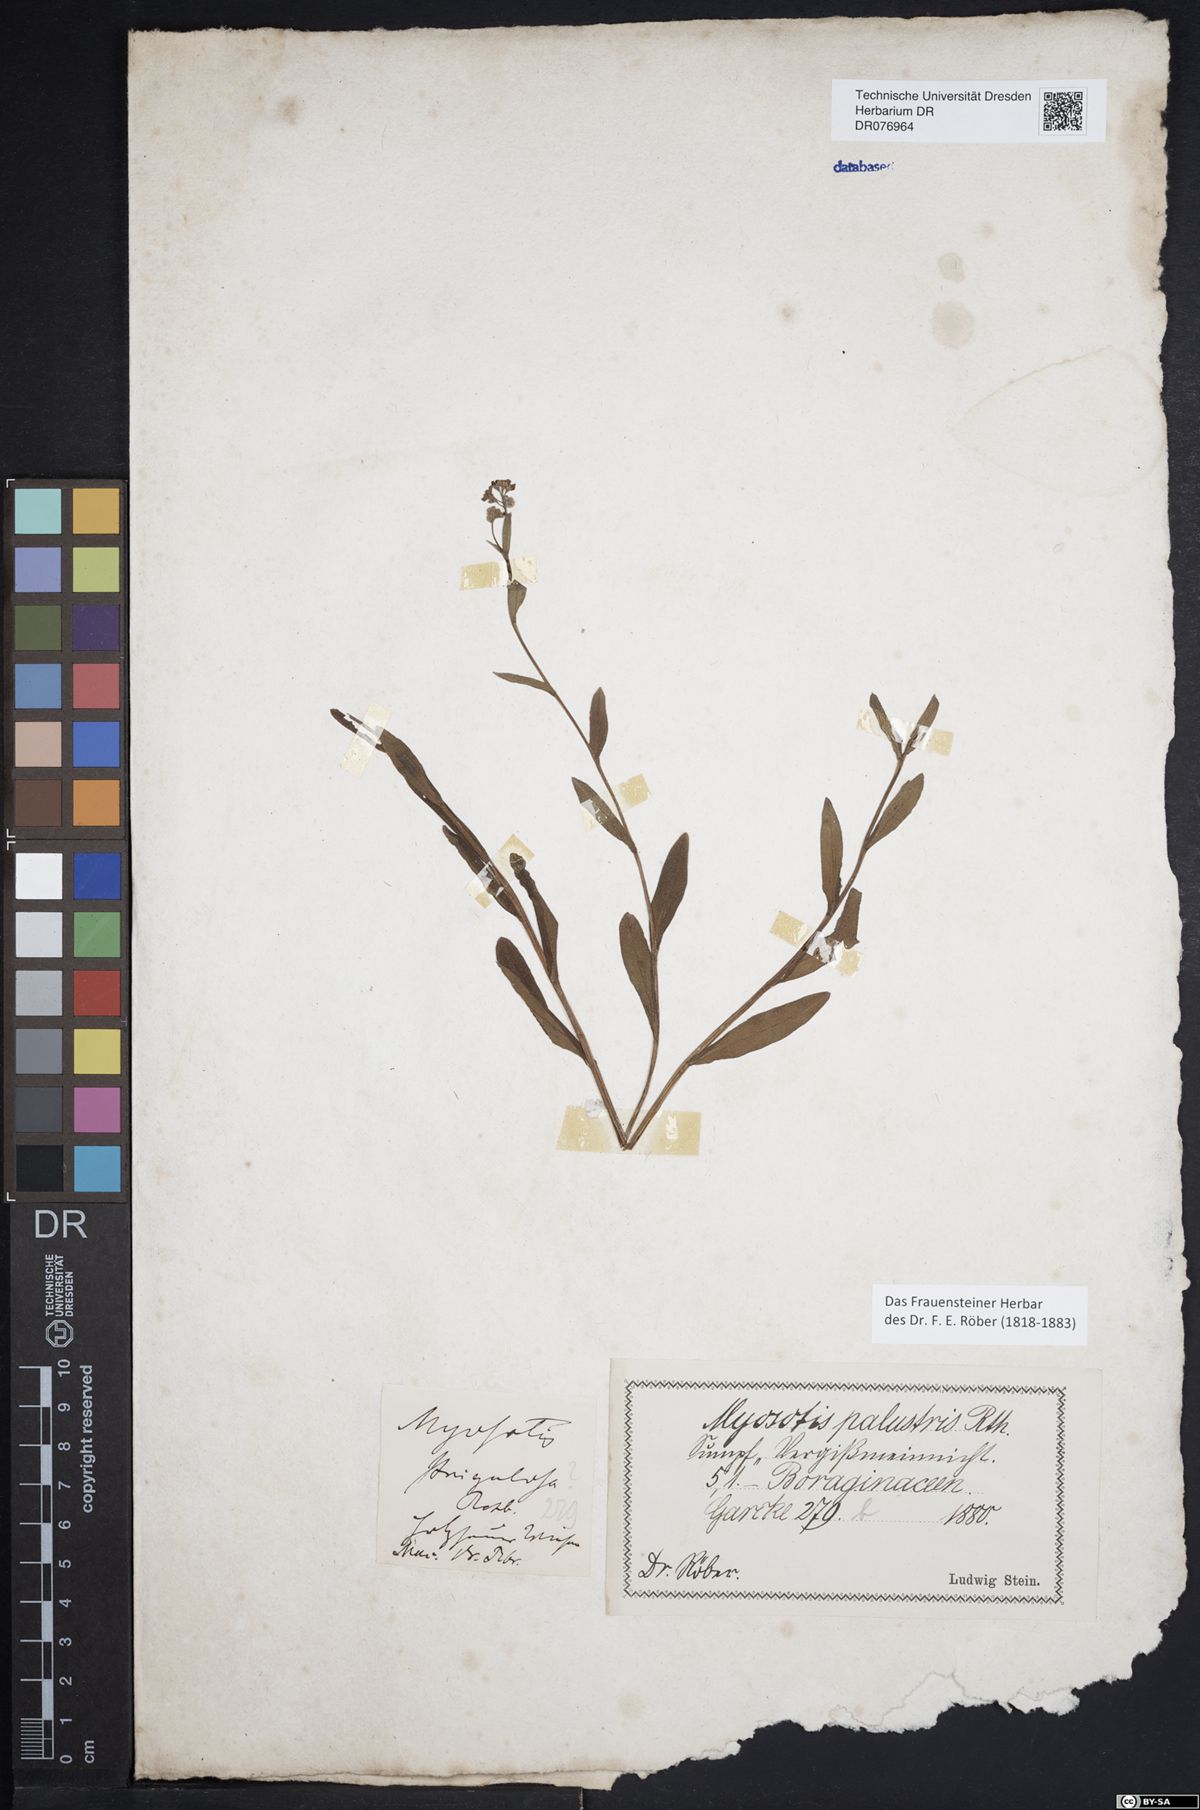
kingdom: Plantae
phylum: Tracheophyta
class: Magnoliopsida
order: Boraginales
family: Boraginaceae
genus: Myosotis
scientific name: Myosotis
